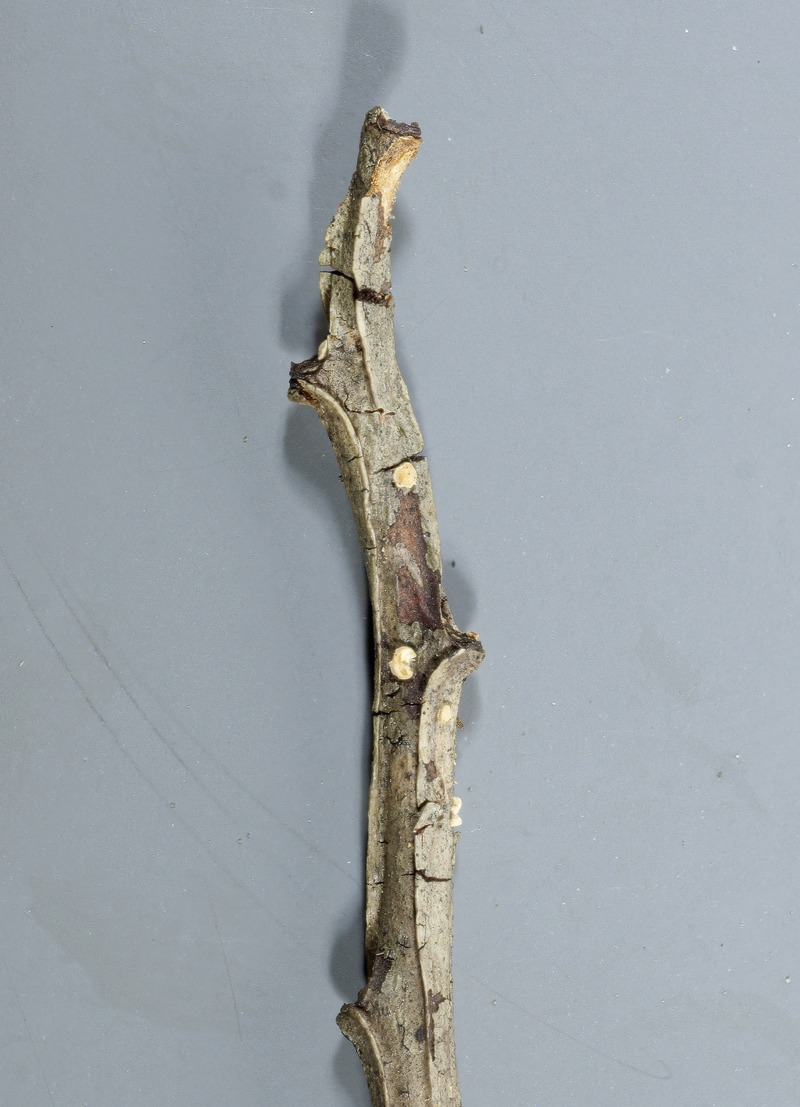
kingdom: Fungi
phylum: Ascomycota
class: Leotiomycetes
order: Helotiales
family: Hyaloscyphaceae
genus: Remleria
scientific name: Remleria myrtillinoides
